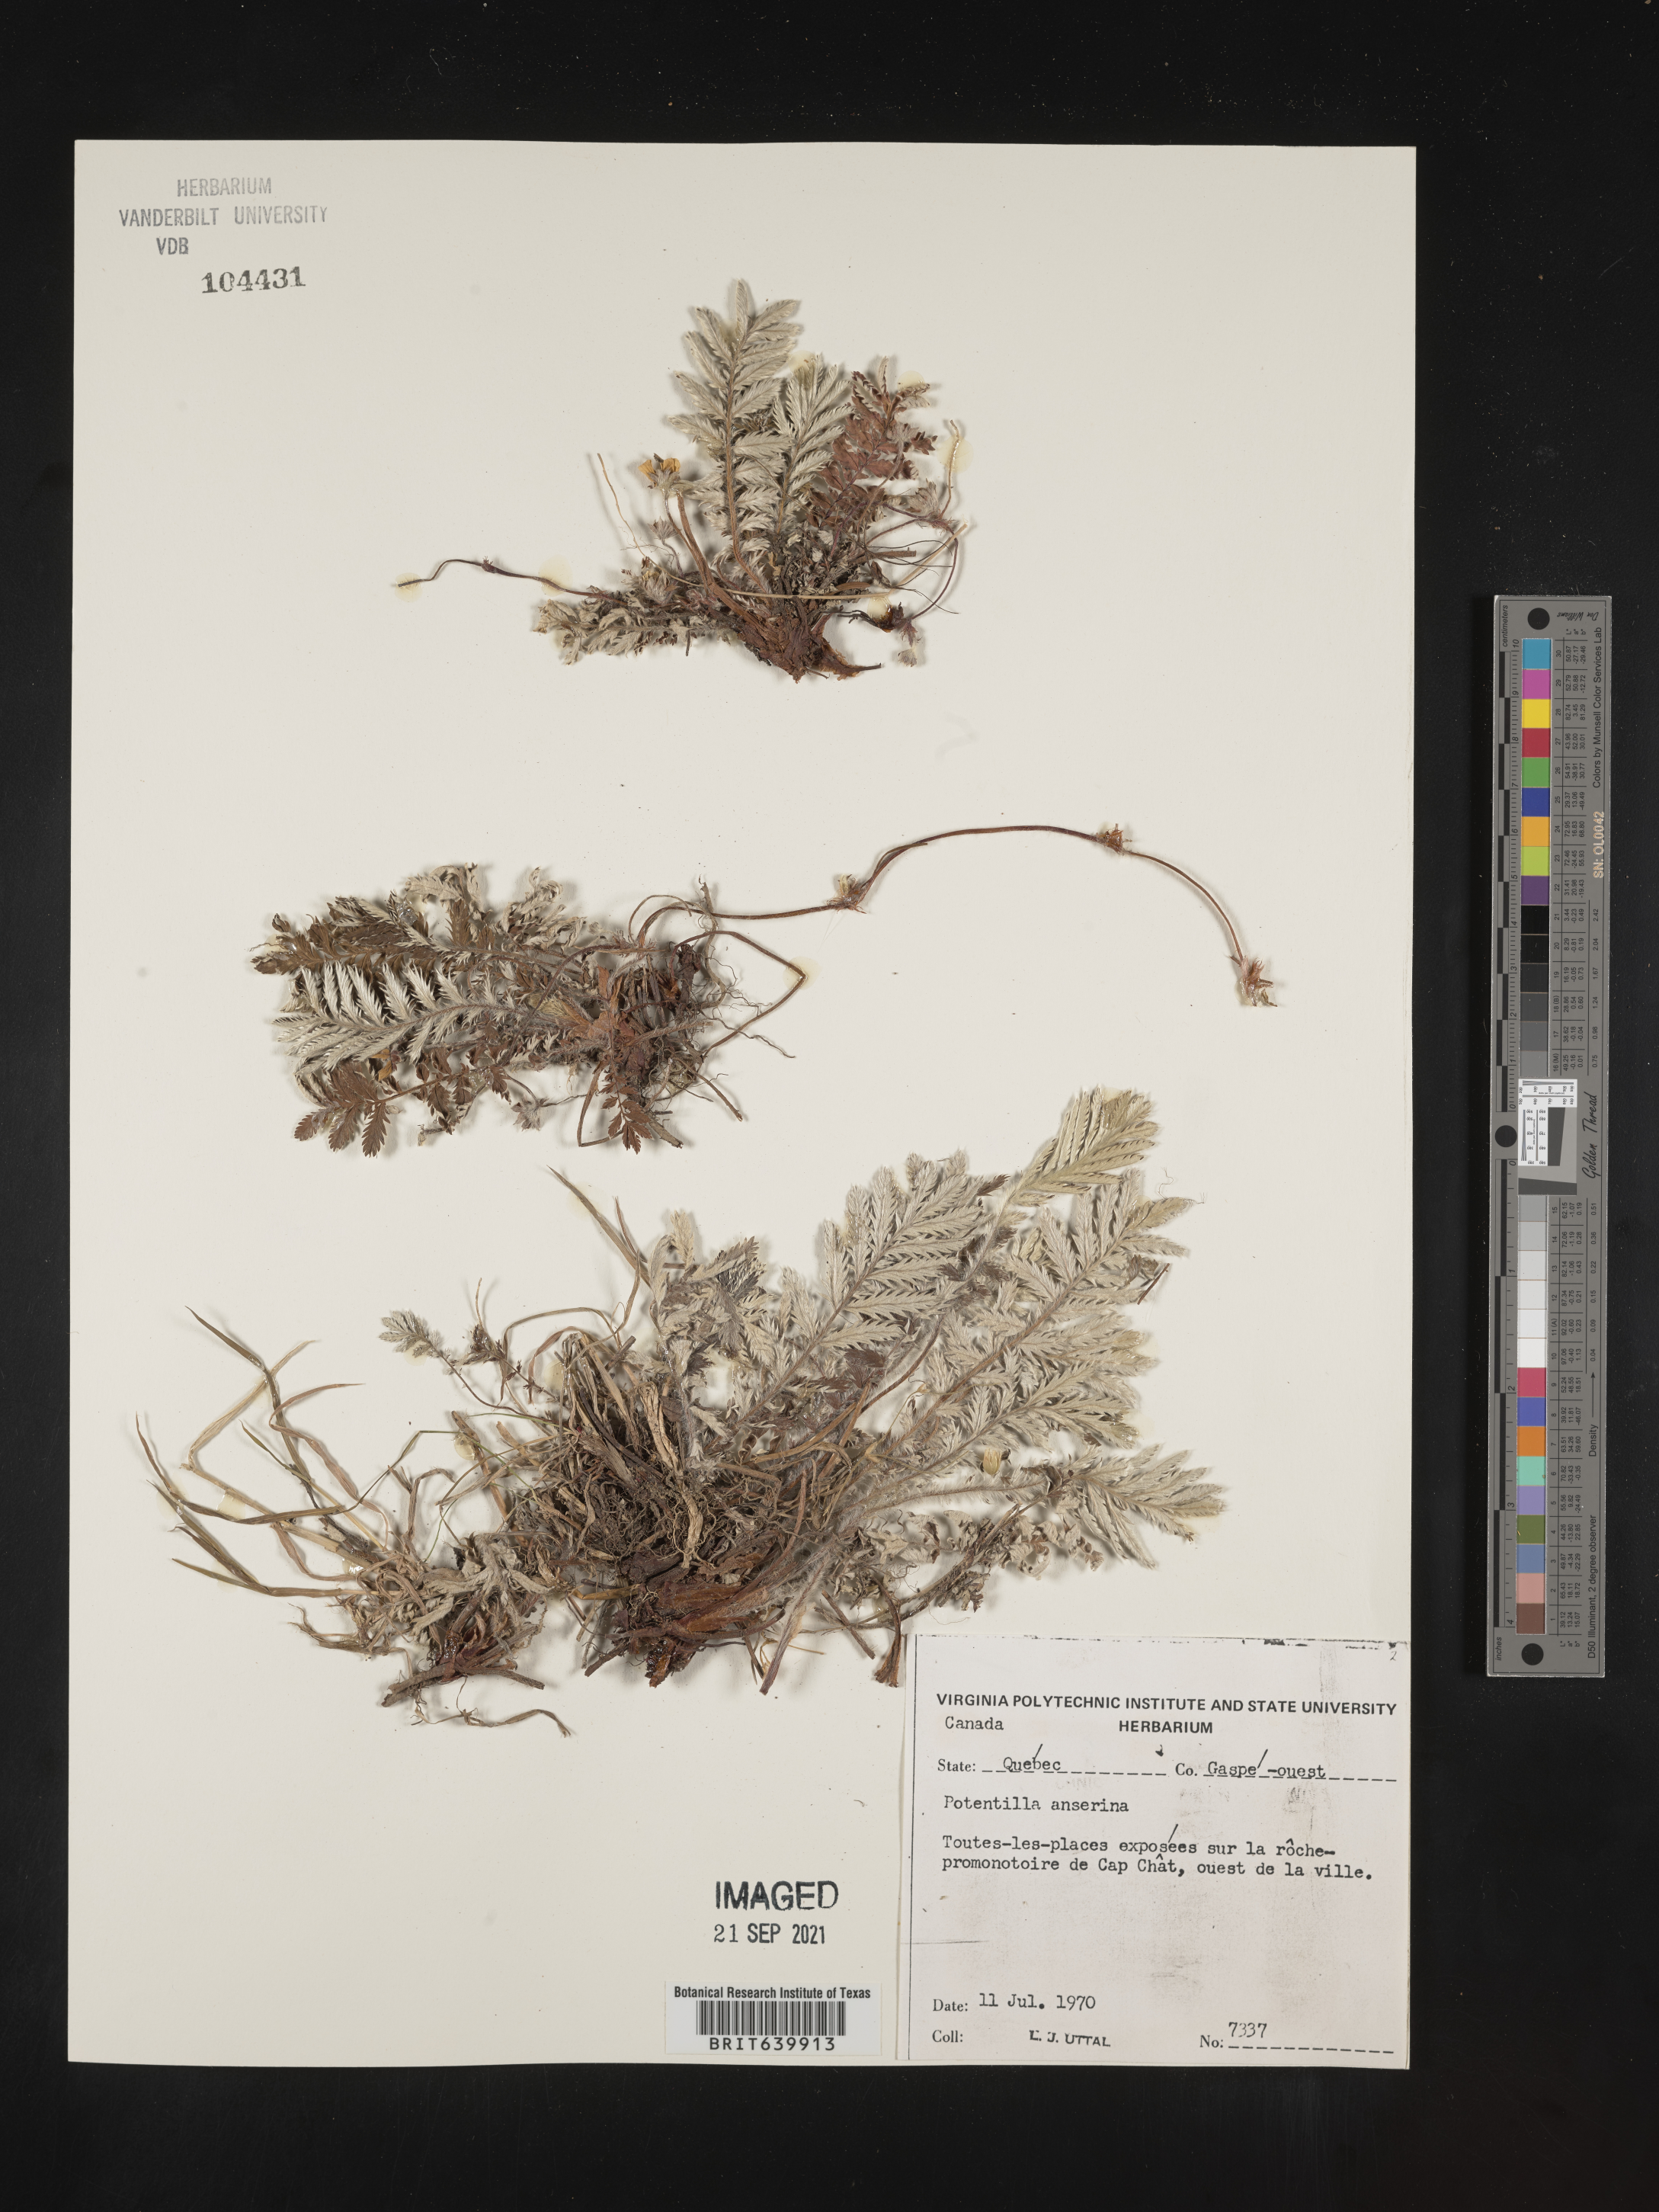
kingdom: Plantae
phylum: Tracheophyta
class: Magnoliopsida
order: Rosales
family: Rosaceae
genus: Potentilla
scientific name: Potentilla
